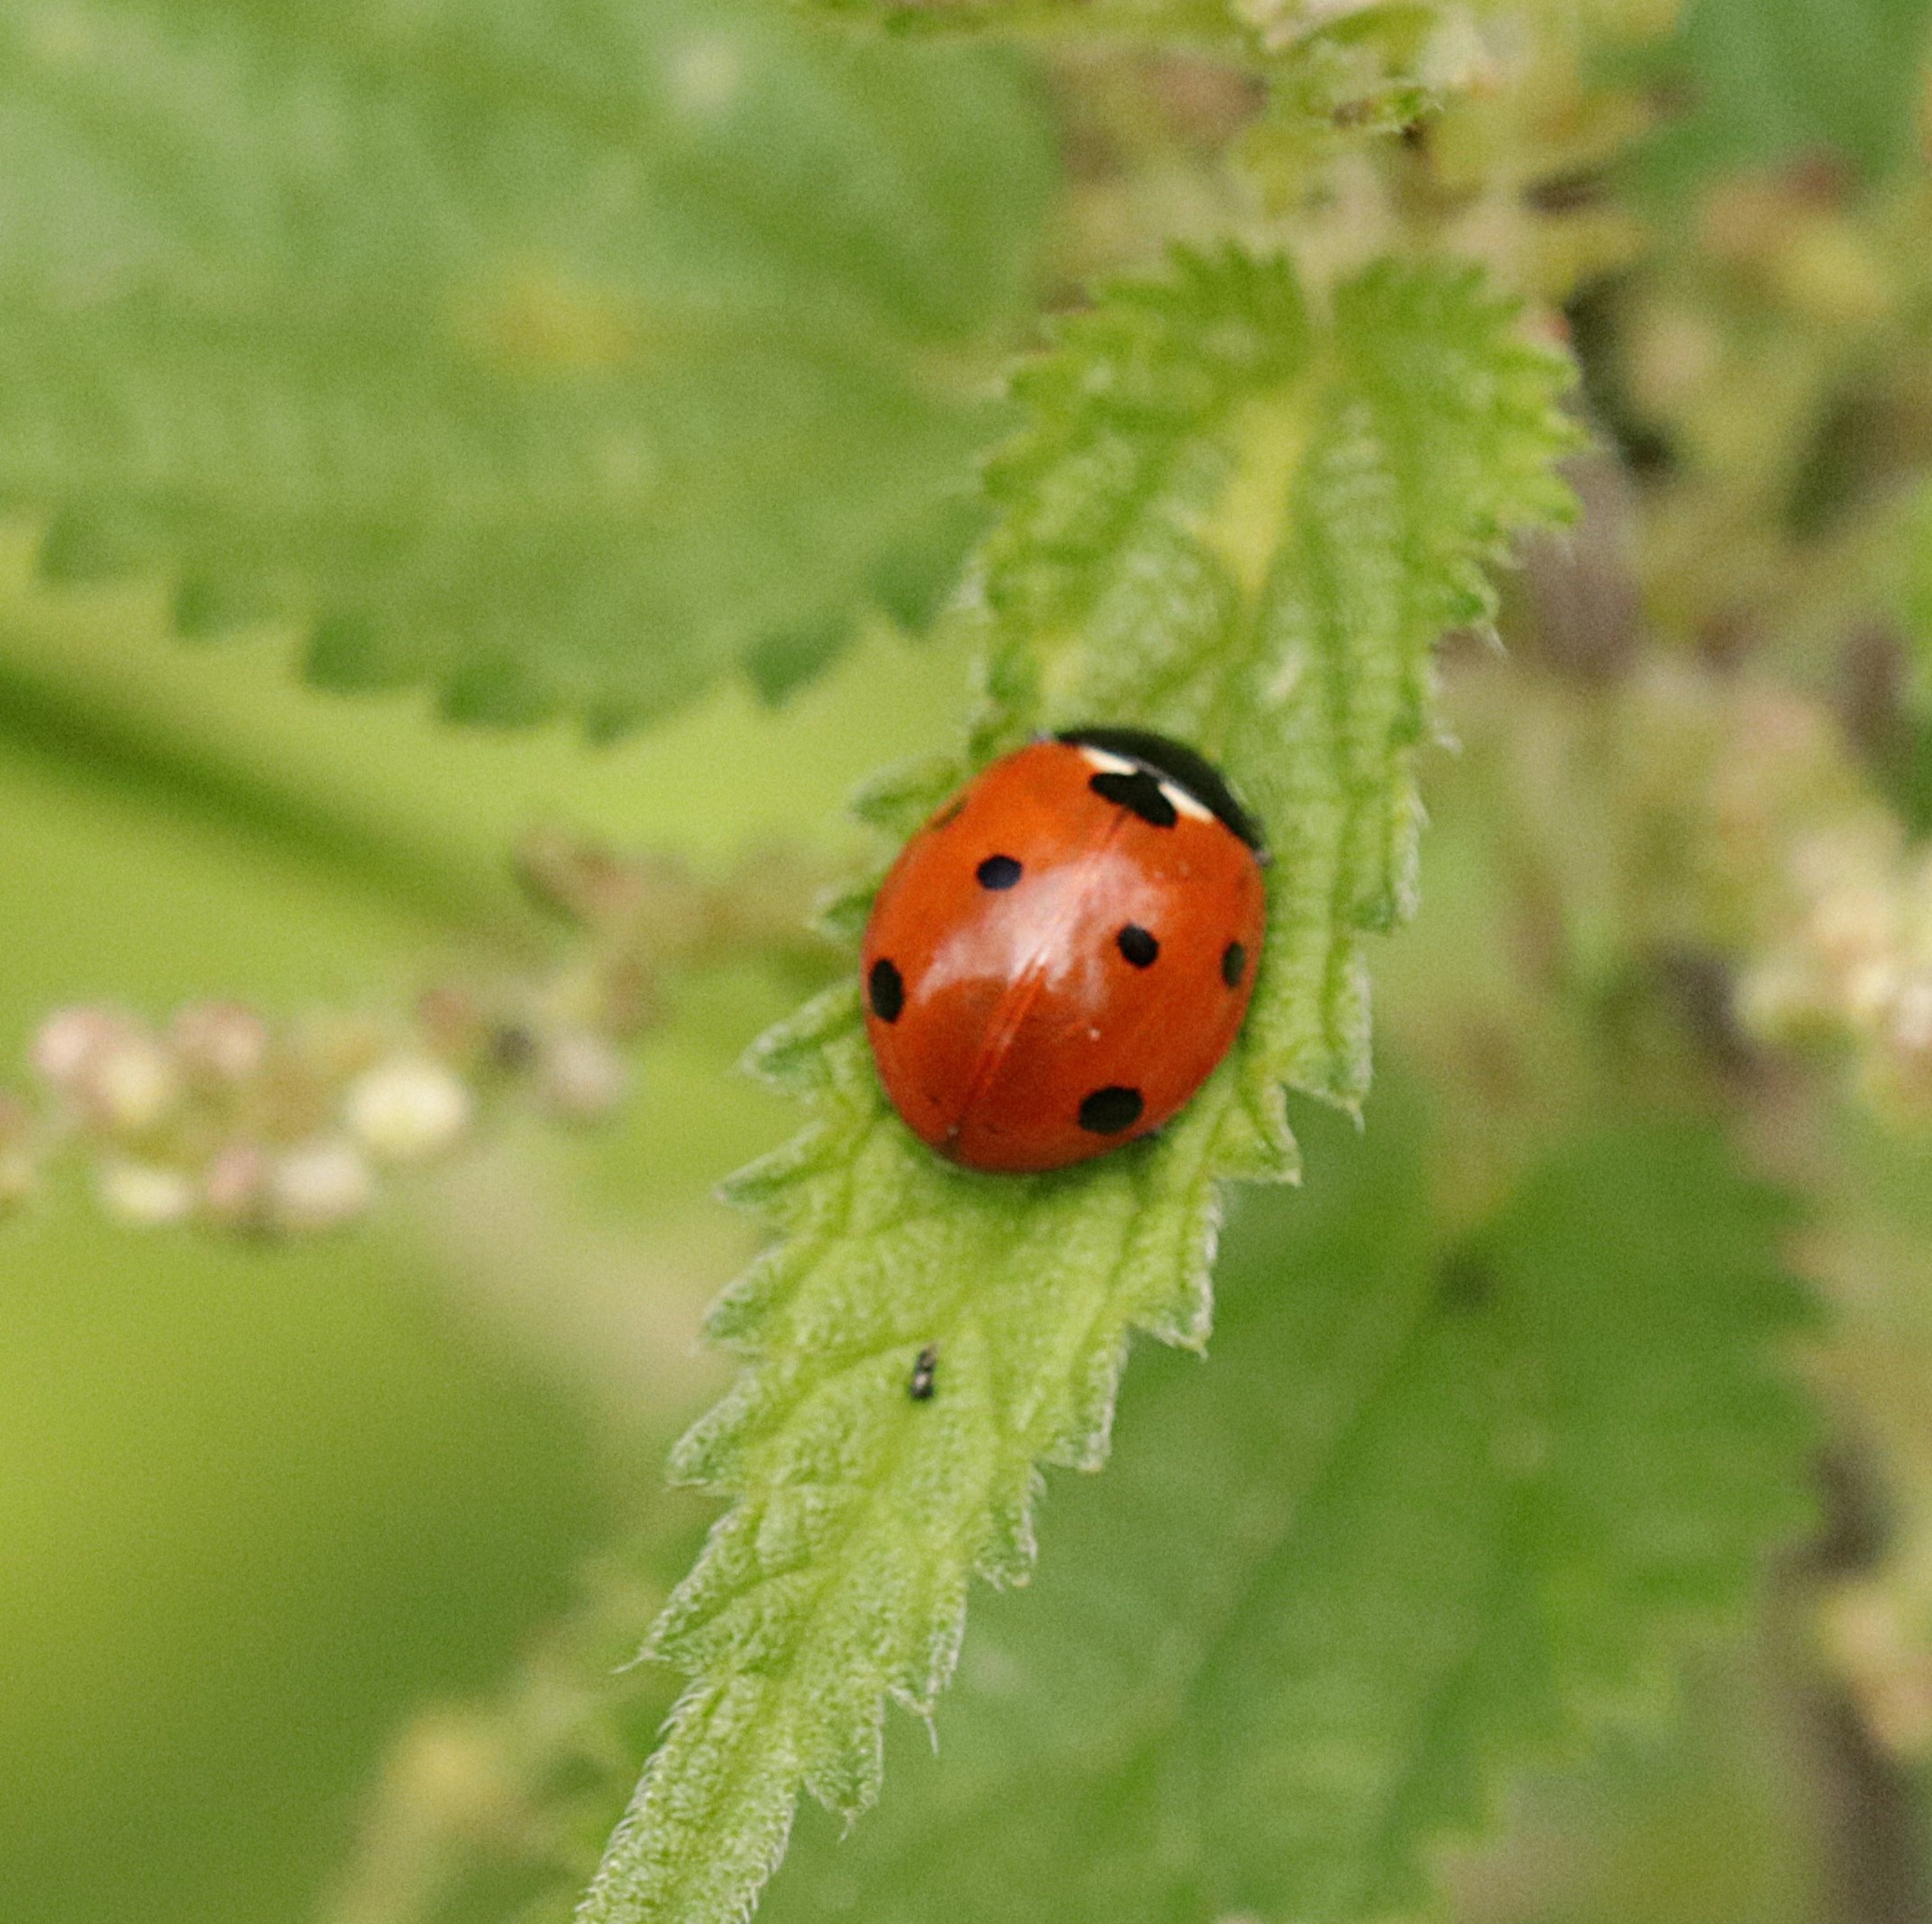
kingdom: Animalia
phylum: Arthropoda
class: Insecta
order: Coleoptera
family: Coccinellidae
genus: Coccinella
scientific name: Coccinella septempunctata
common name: Syvplettet mariehøne
